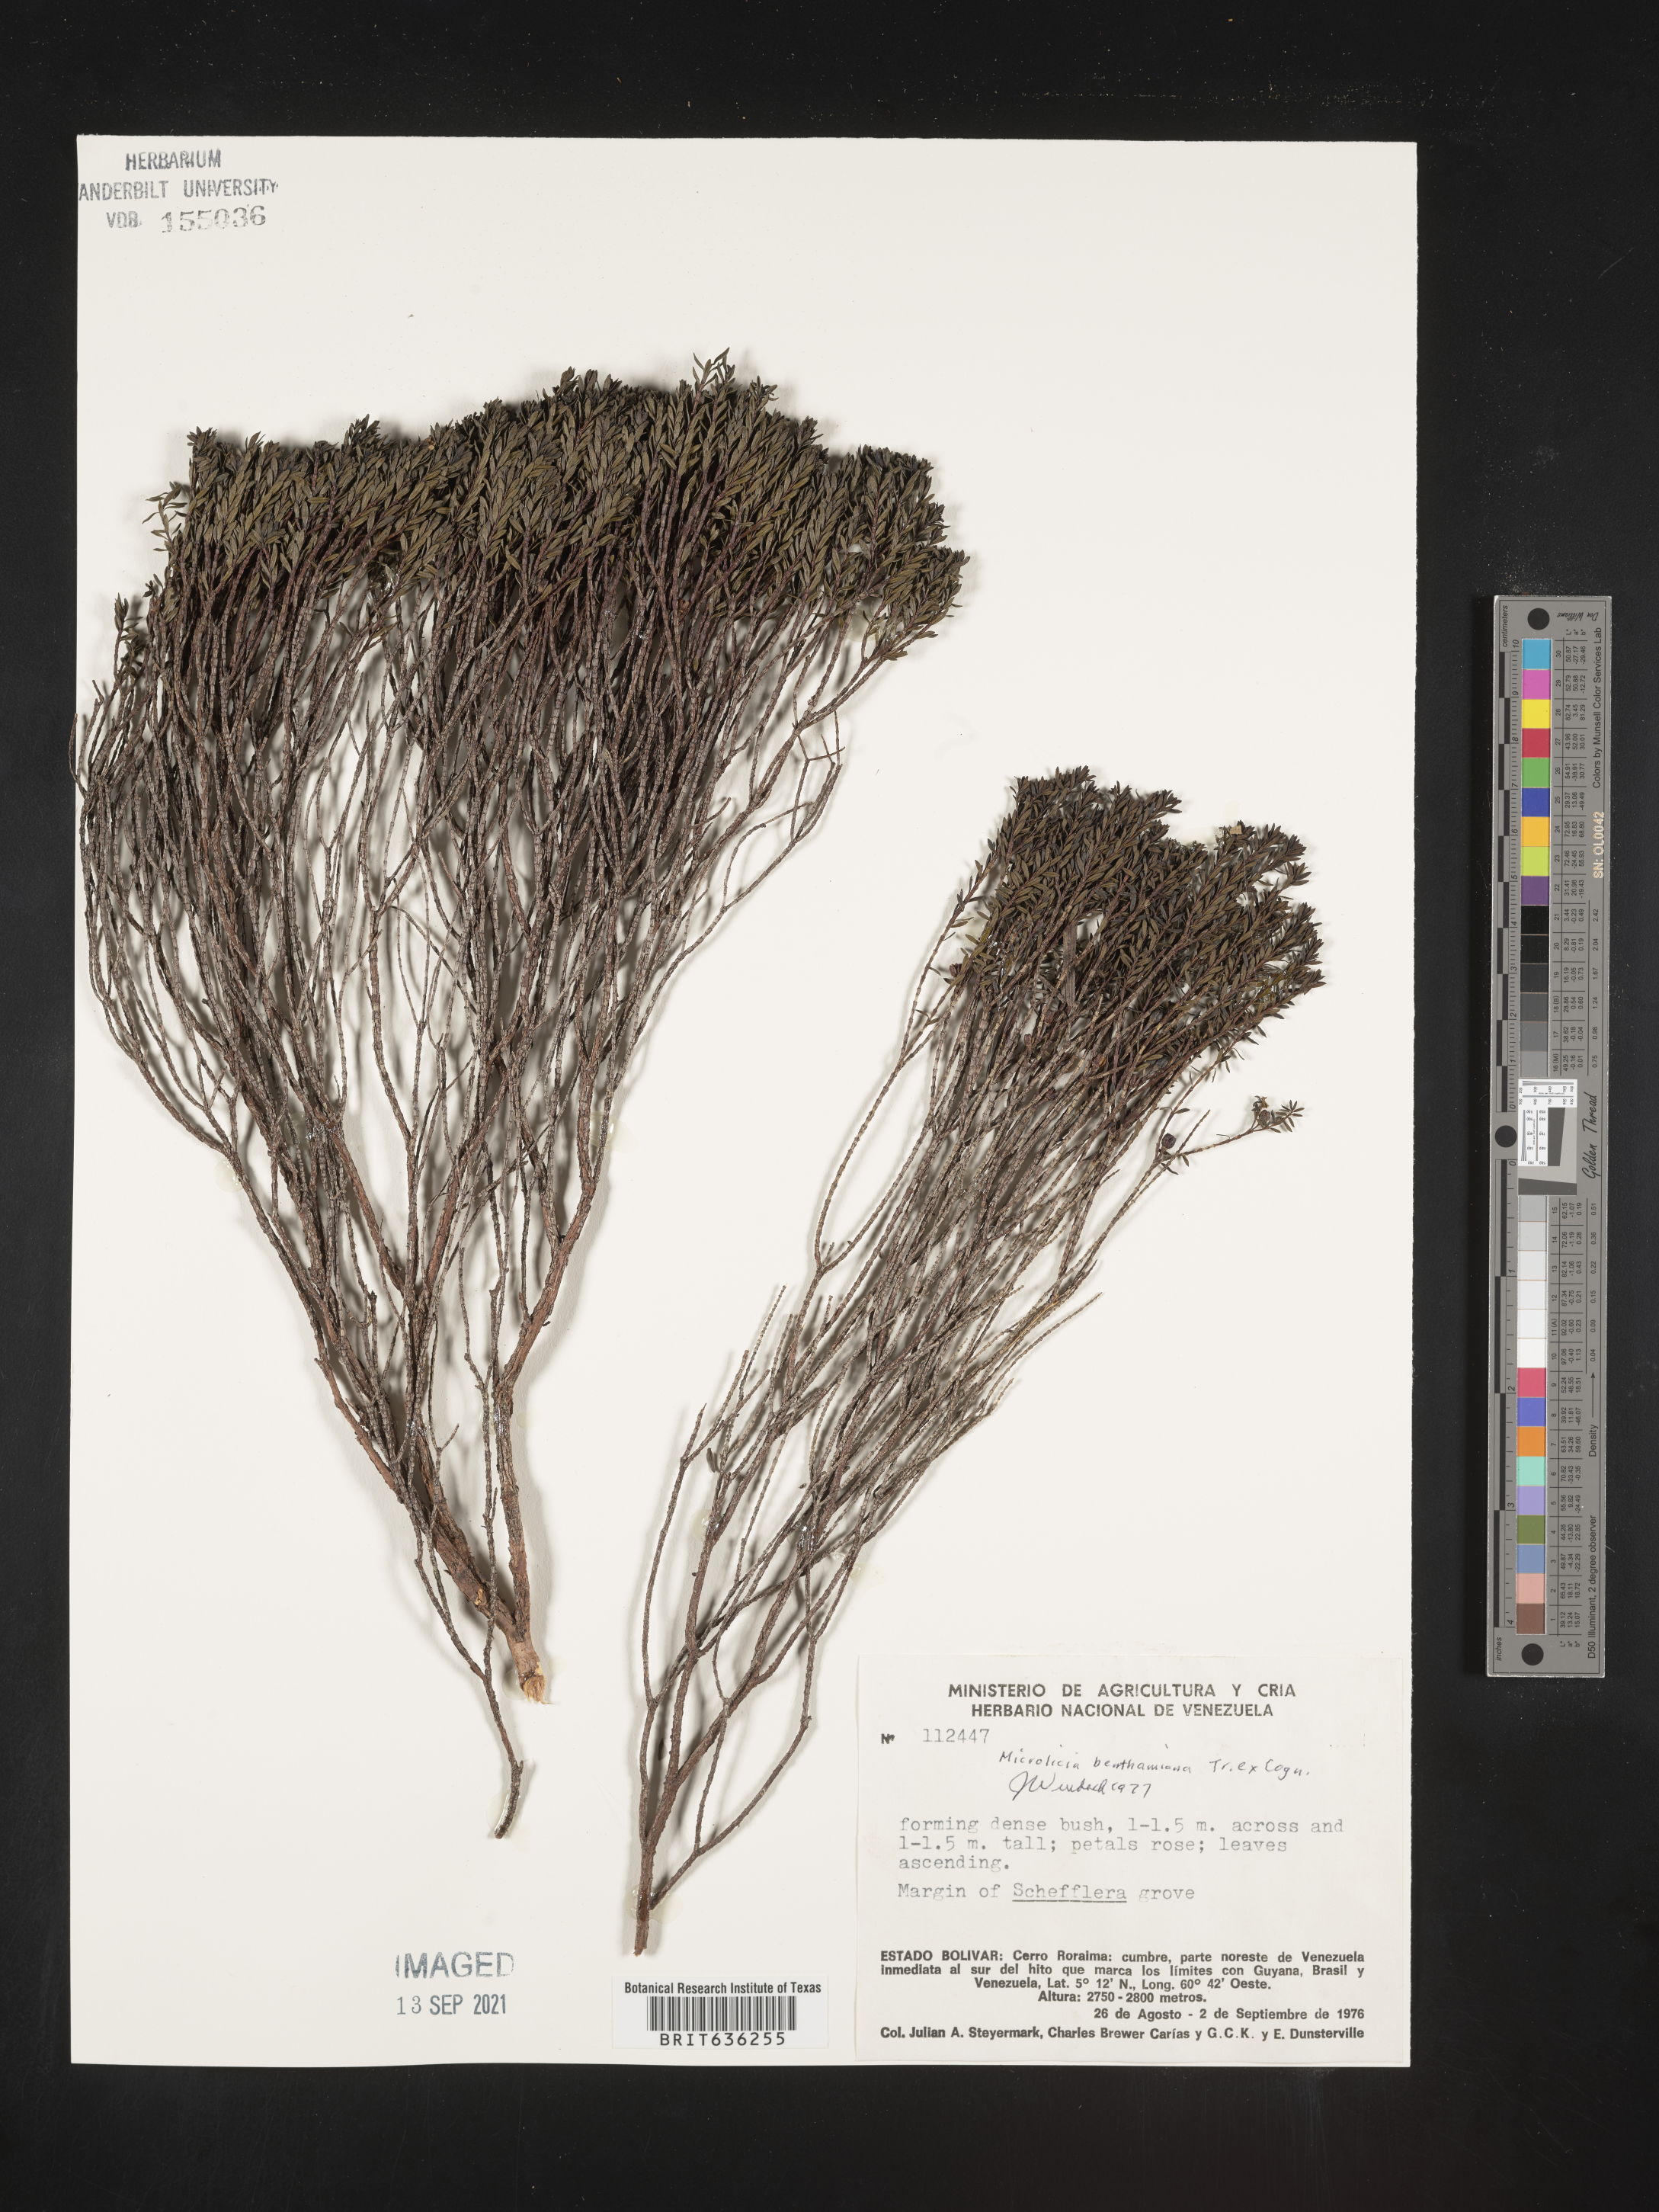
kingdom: Plantae
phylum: Tracheophyta
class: Magnoliopsida
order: Myrtales
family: Melastomataceae
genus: Microlicia
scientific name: Microlicia
